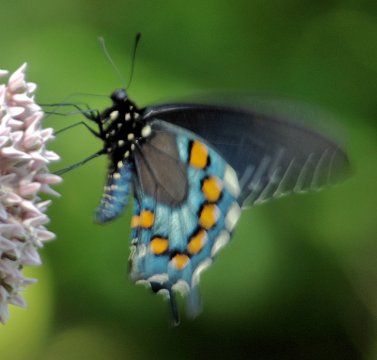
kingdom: Animalia
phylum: Arthropoda
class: Insecta
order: Lepidoptera
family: Papilionidae
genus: Battus
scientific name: Battus philenor
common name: Pipevine Swallowtail
